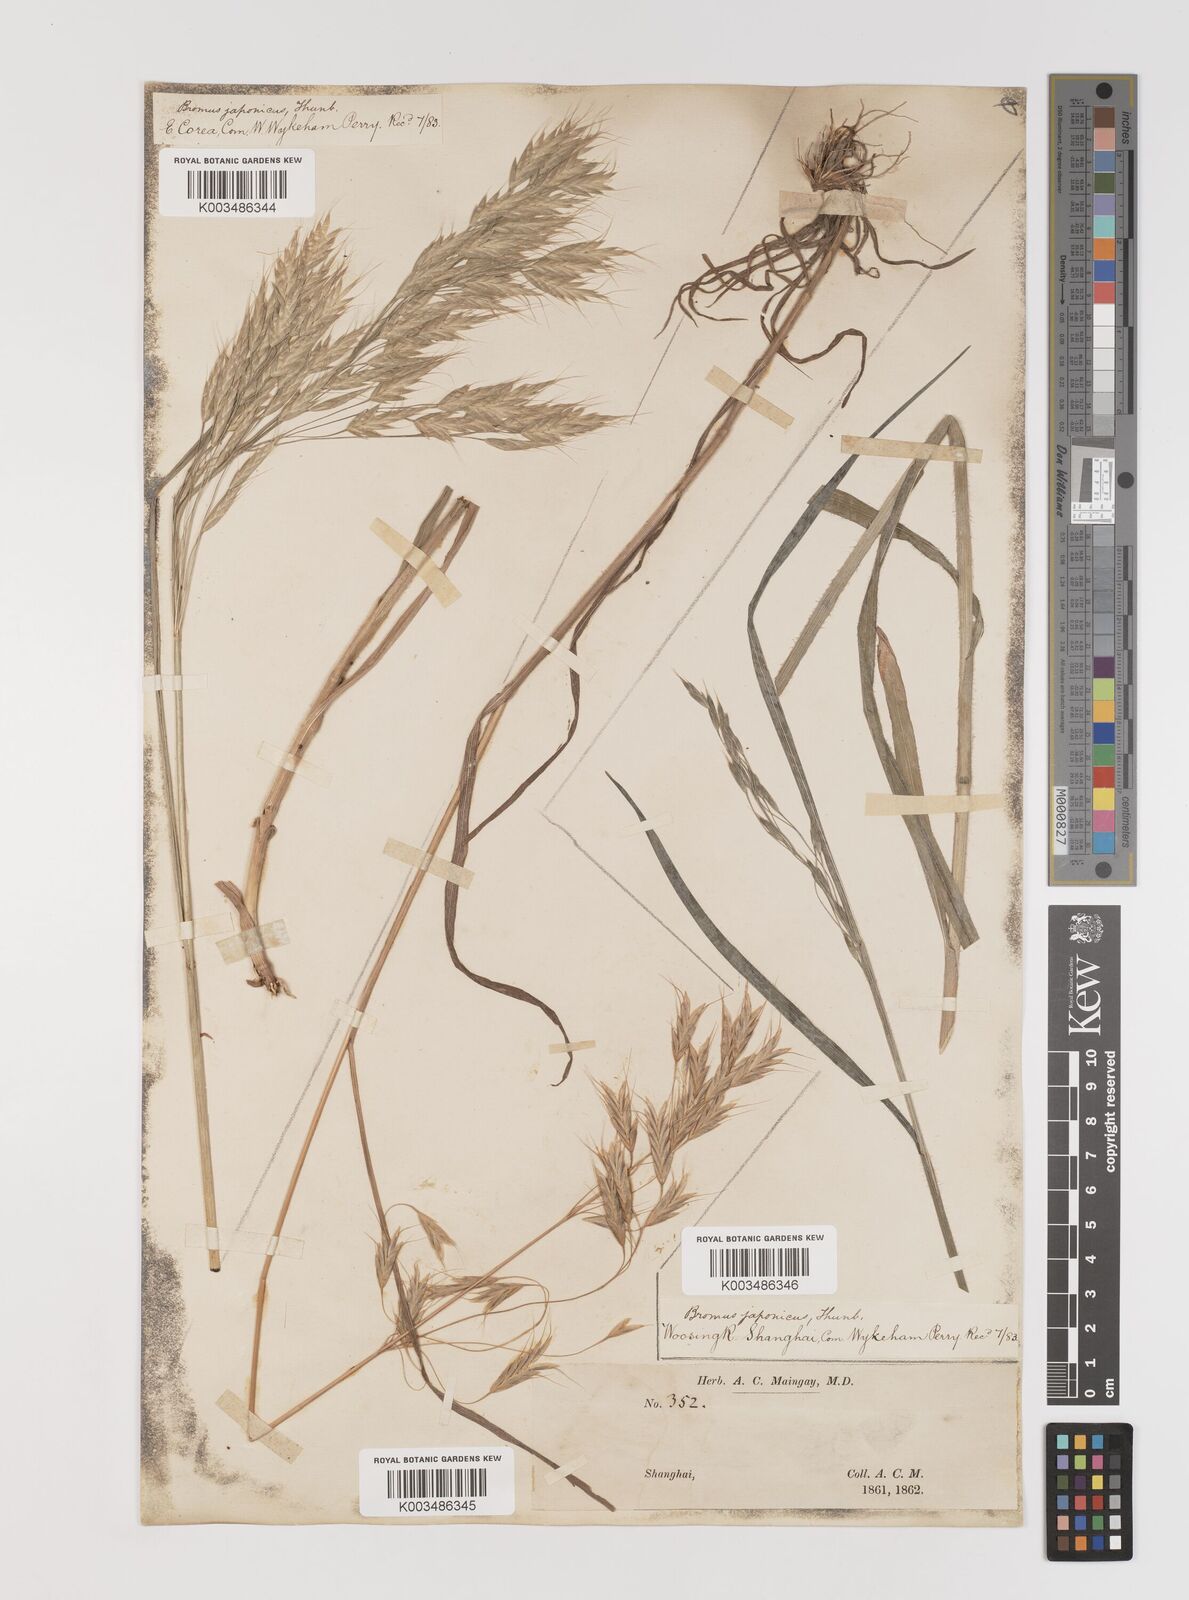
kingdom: Plantae
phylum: Tracheophyta
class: Liliopsida
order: Poales
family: Poaceae
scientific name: Poaceae
